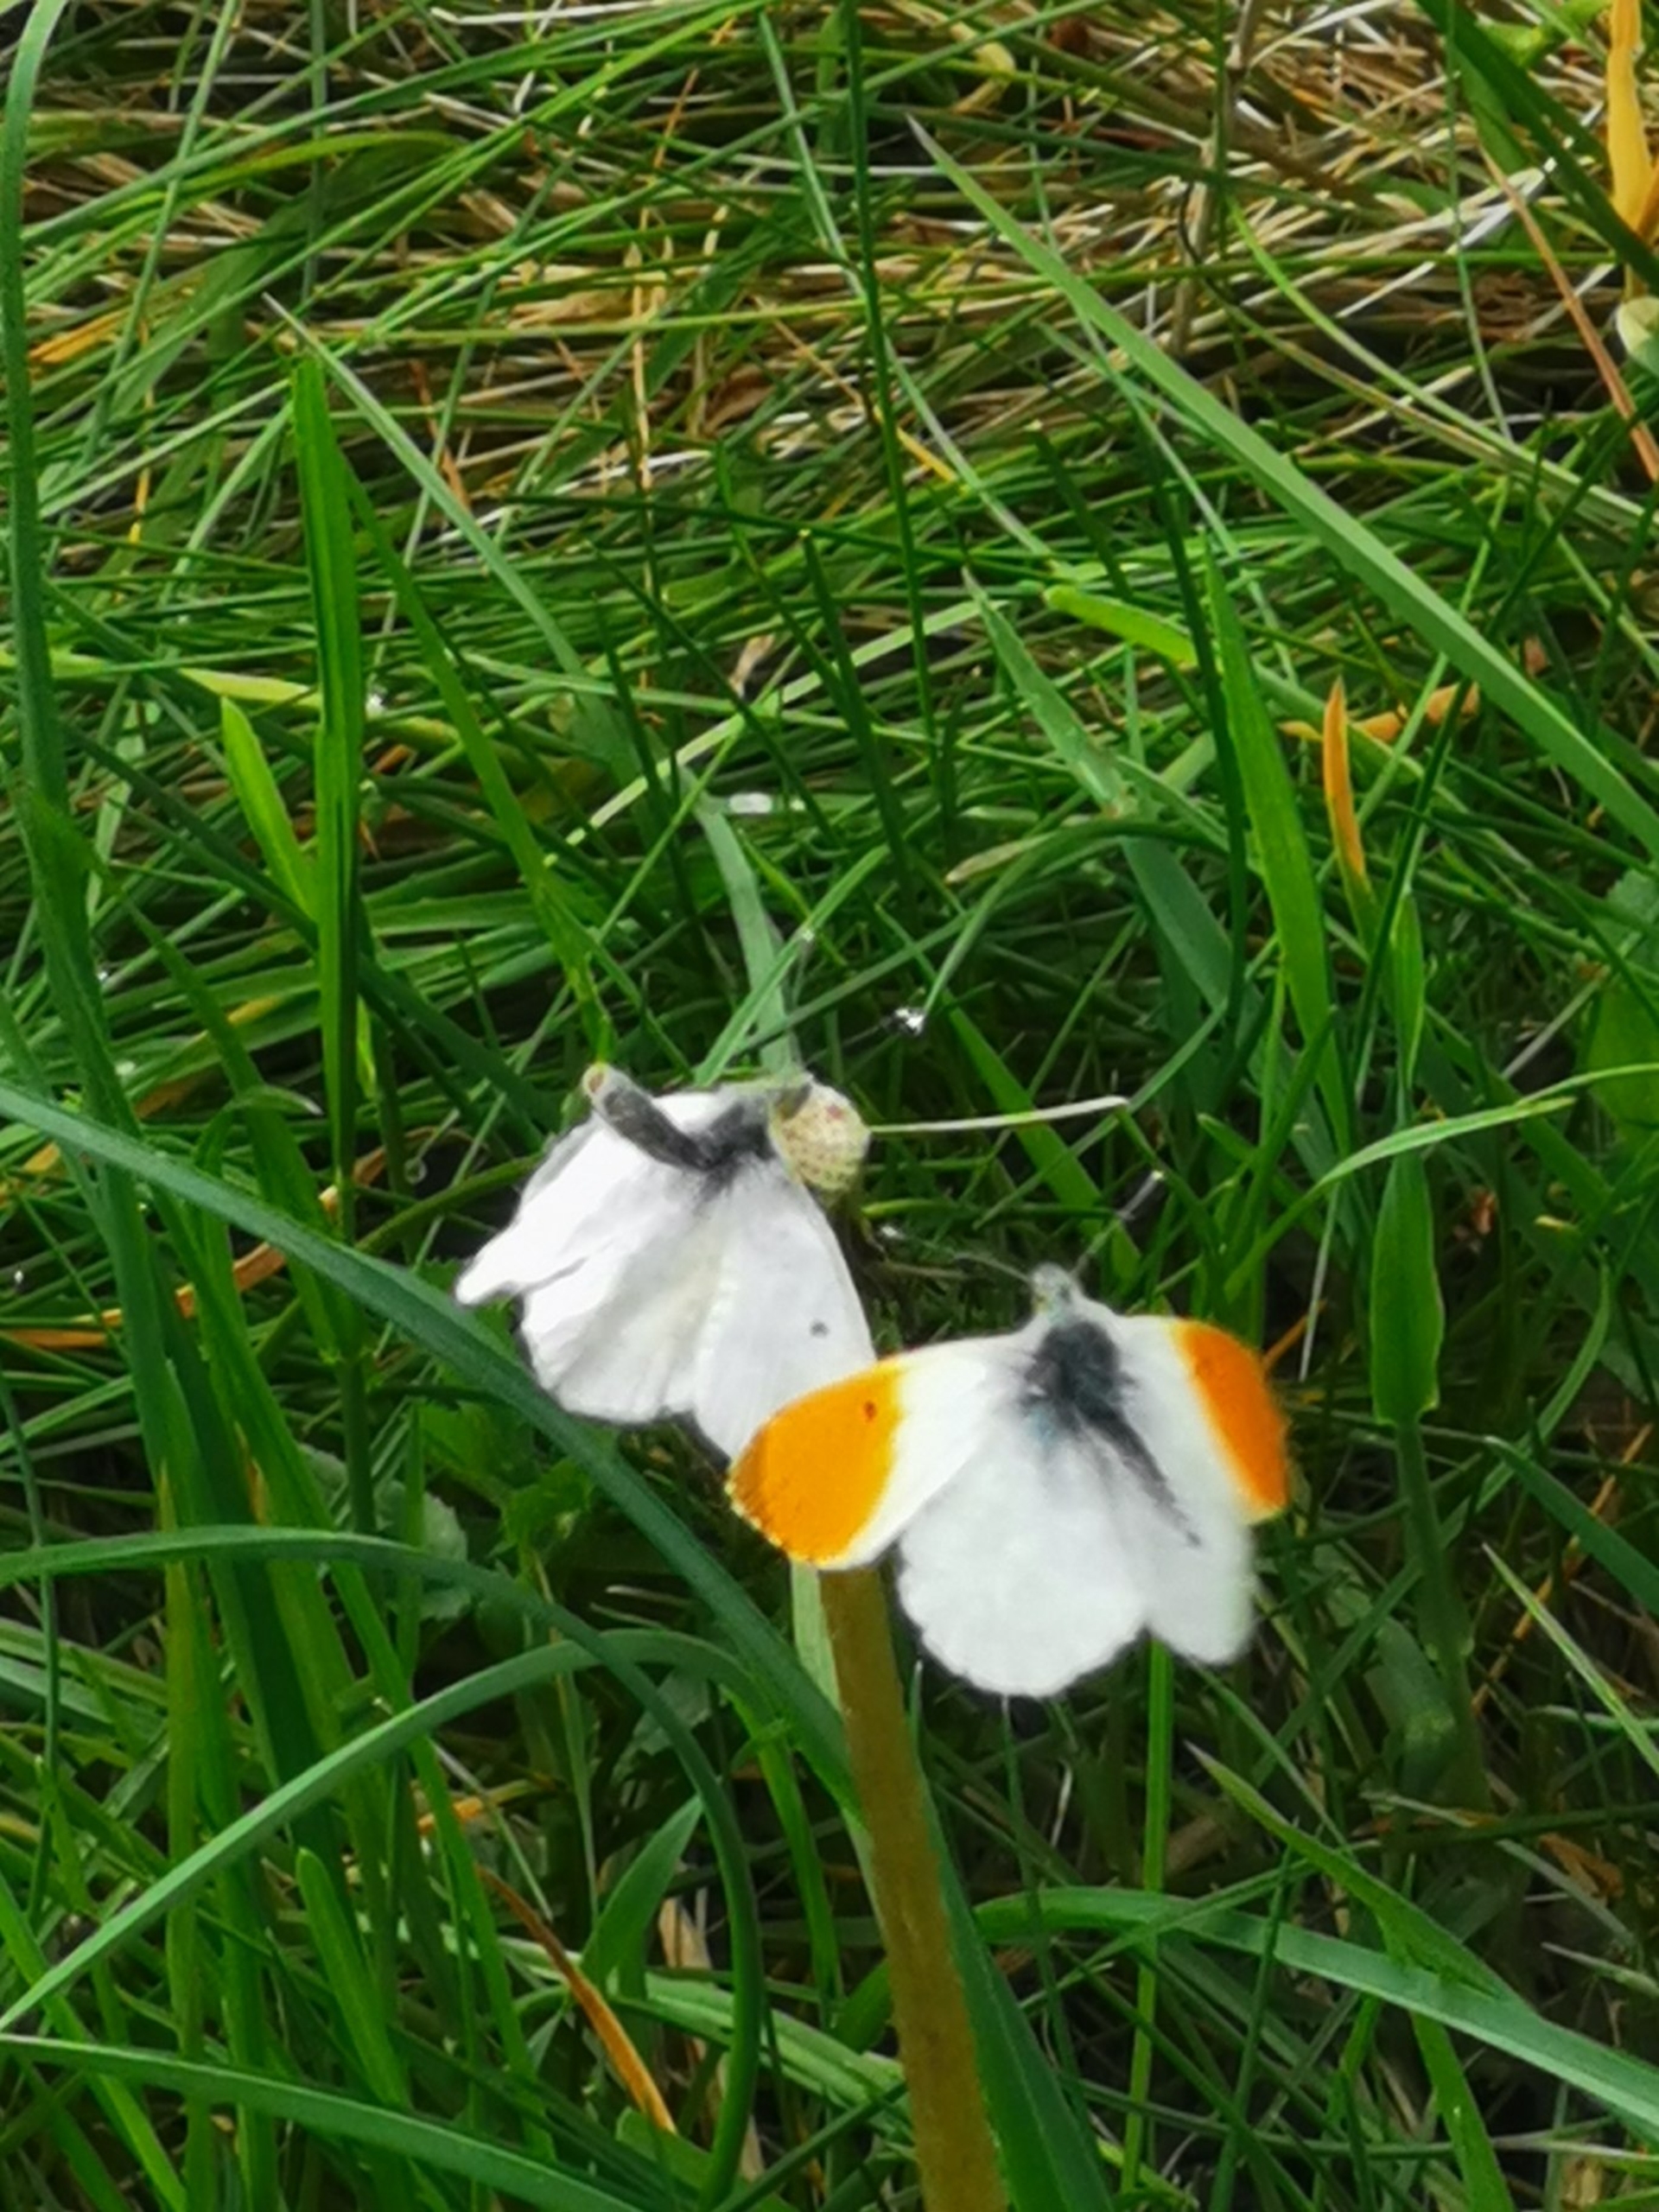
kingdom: Animalia
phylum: Arthropoda
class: Insecta
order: Lepidoptera
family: Pieridae
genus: Anthocharis
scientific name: Anthocharis cardamines
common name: Aurora
